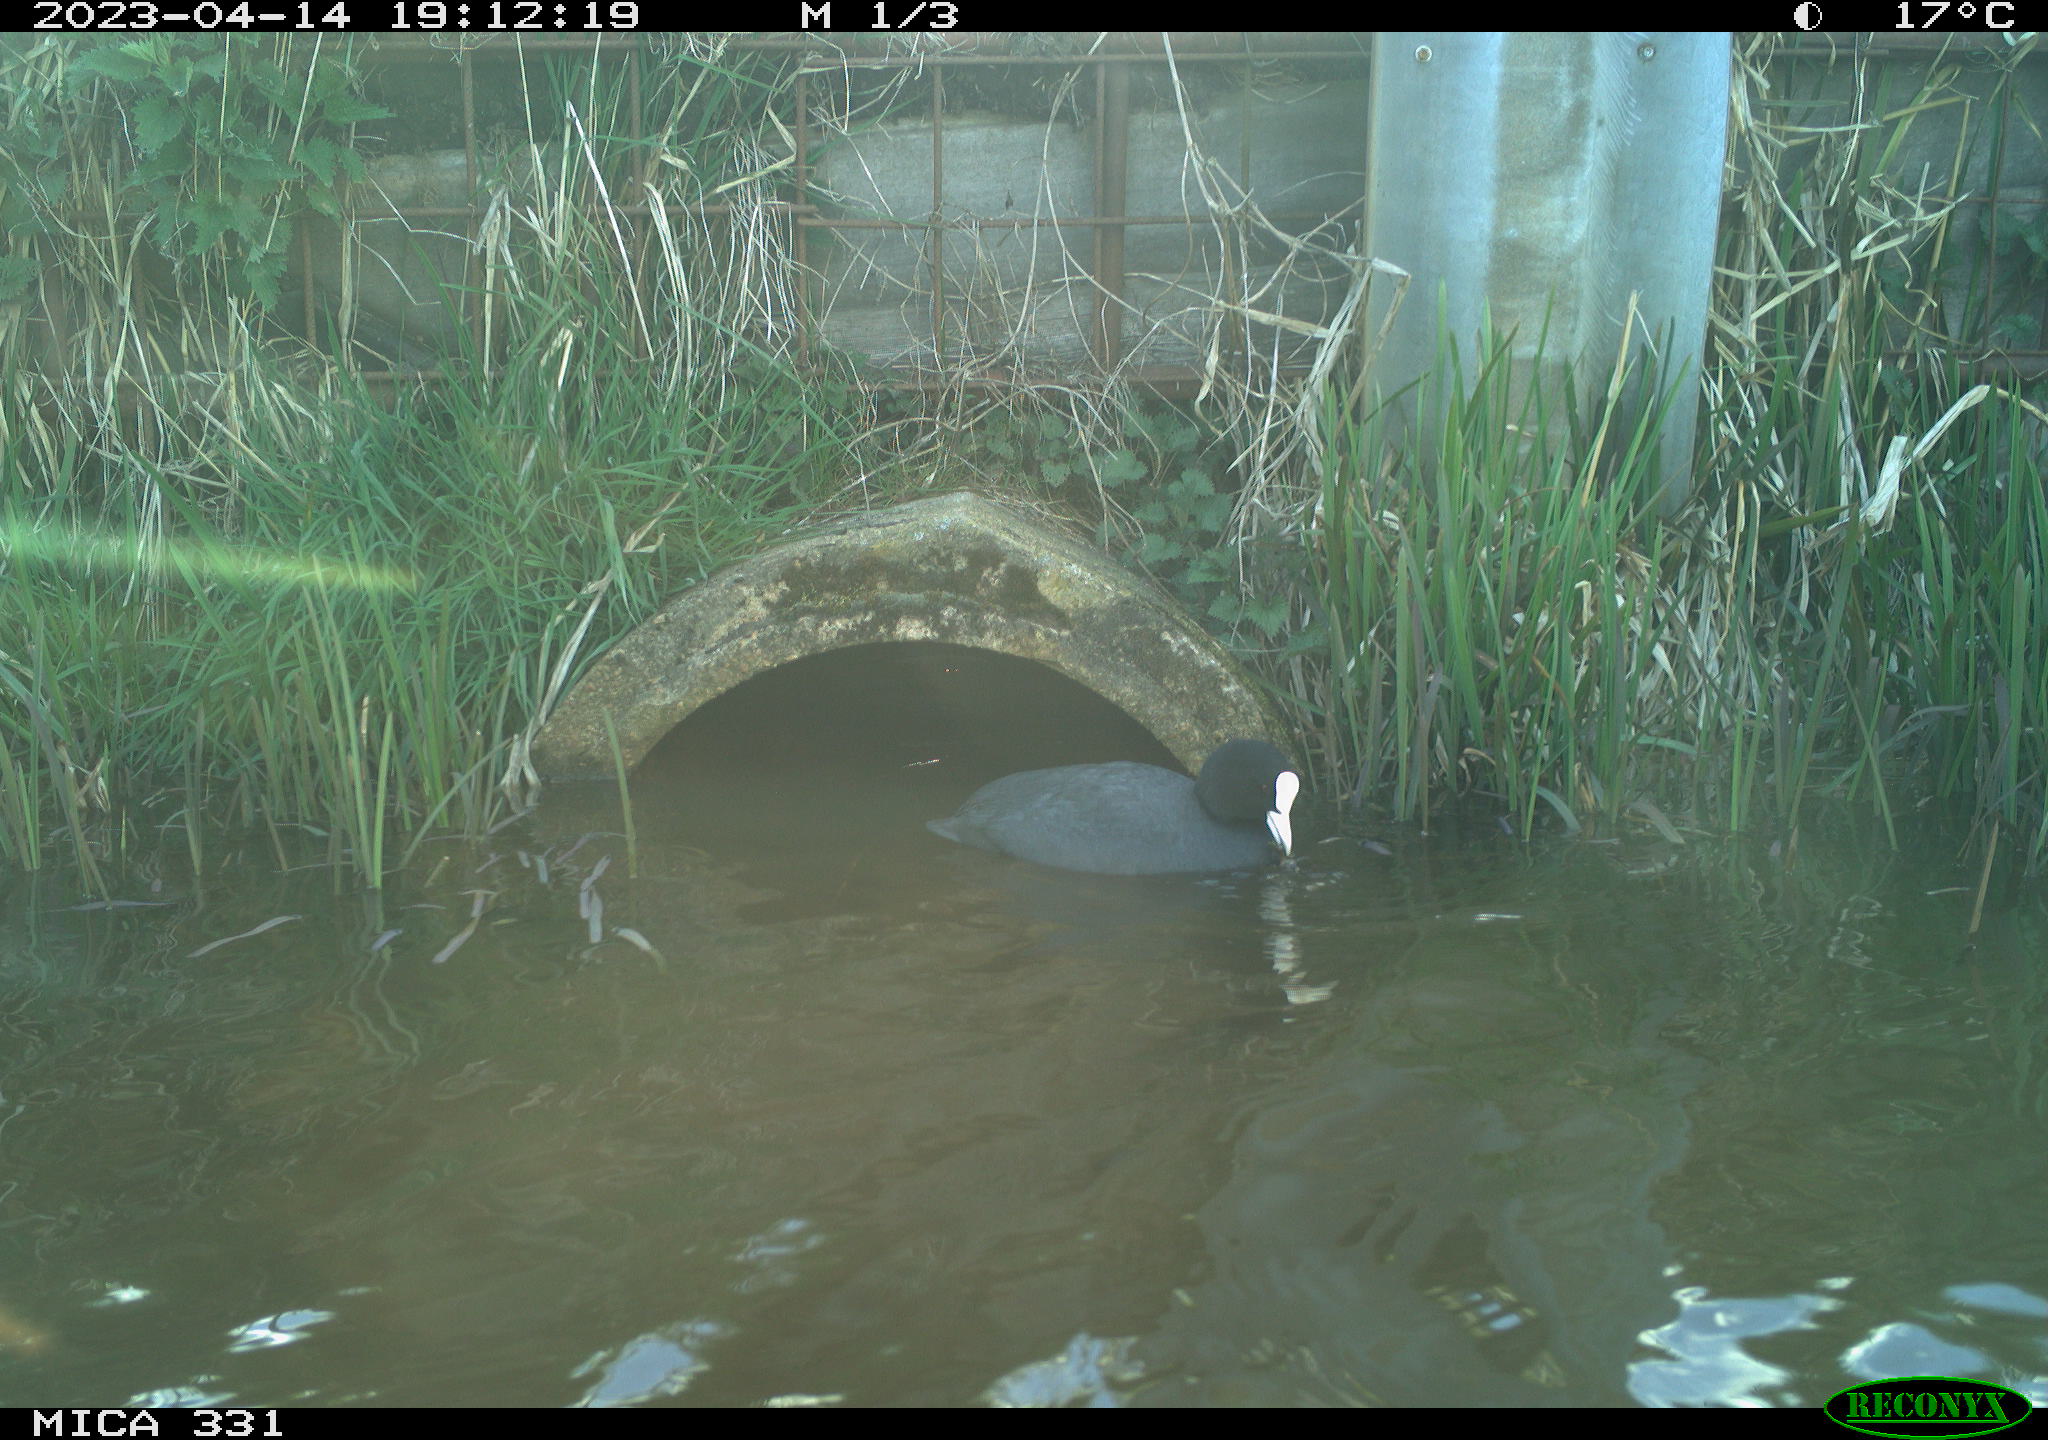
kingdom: Animalia
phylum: Chordata
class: Aves
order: Gruiformes
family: Rallidae
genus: Fulica
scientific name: Fulica atra
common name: Eurasian coot
